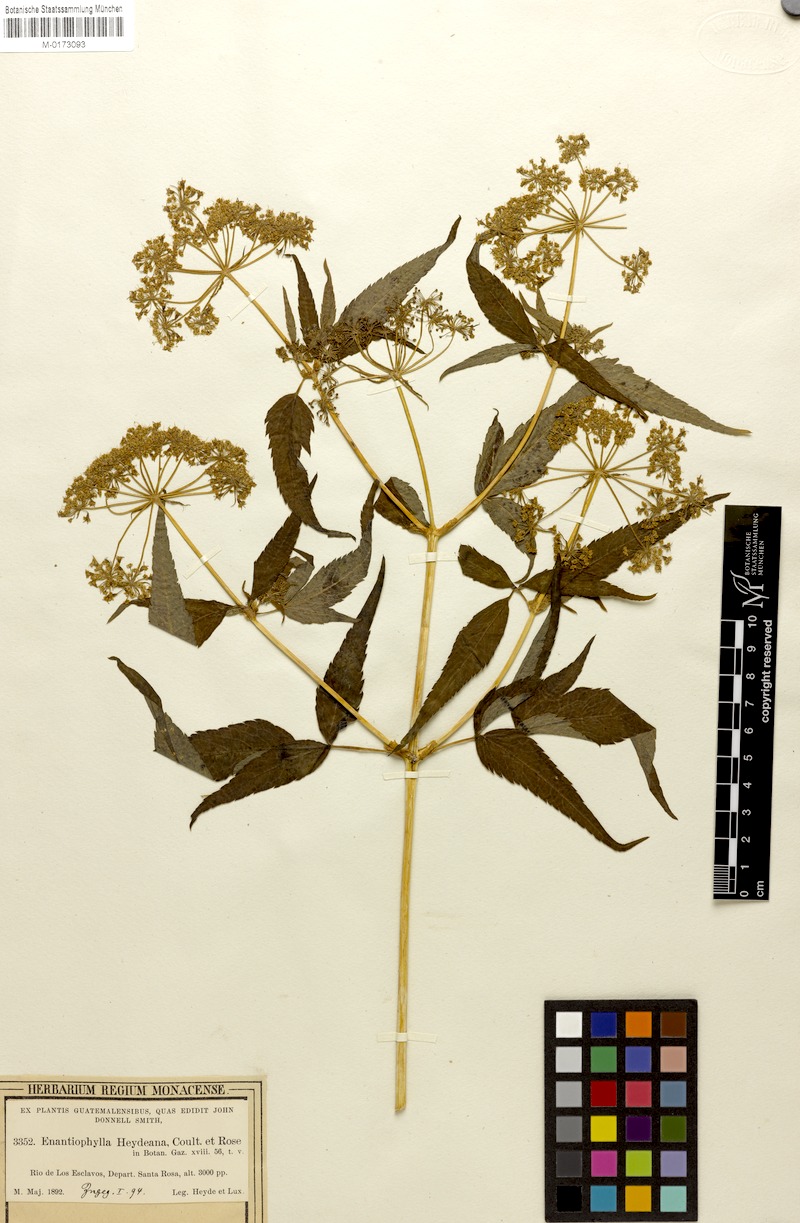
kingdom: Plantae
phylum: Tracheophyta
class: Magnoliopsida
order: Apiales
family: Apiaceae
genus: Enantiophylla
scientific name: Enantiophylla heydeana
